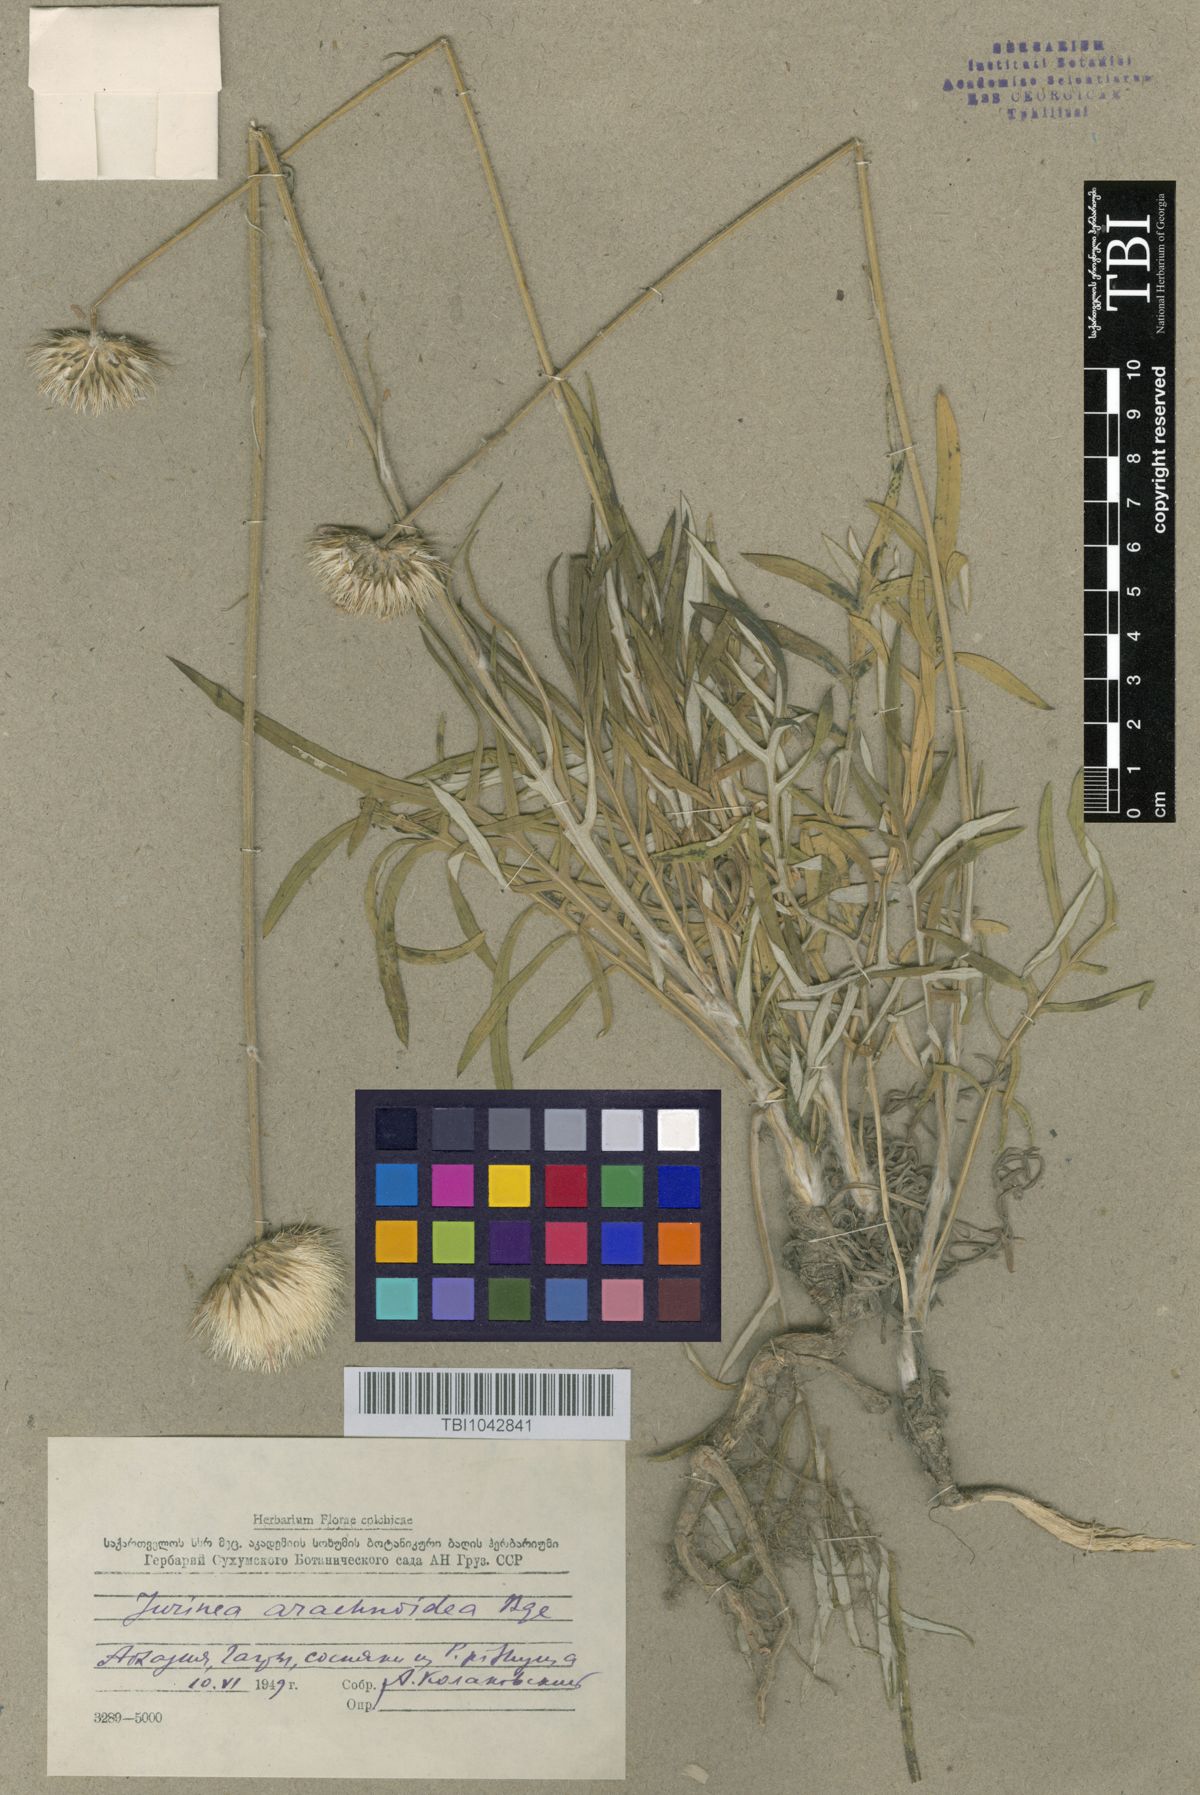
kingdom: Plantae
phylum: Tracheophyta
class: Magnoliopsida
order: Asterales
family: Asteraceae
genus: Jurinea
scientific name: Jurinea blanda
